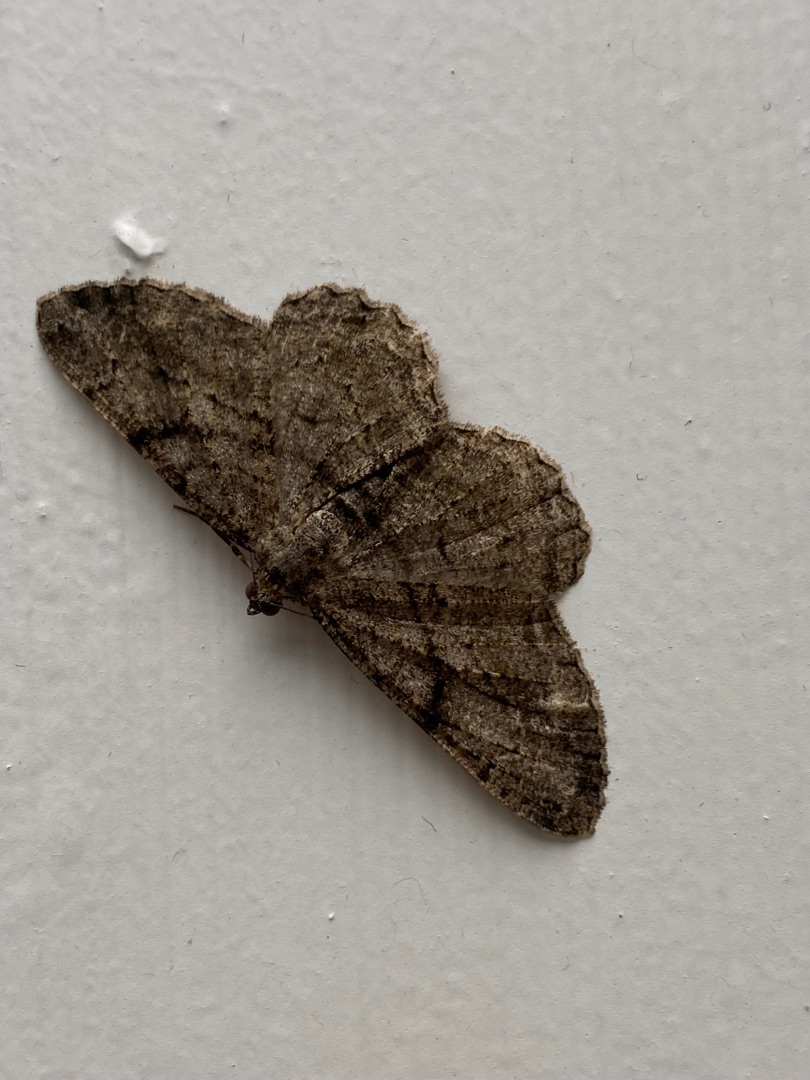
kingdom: Animalia
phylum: Arthropoda
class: Insecta
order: Lepidoptera
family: Geometridae
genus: Peribatodes
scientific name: Peribatodes rhomboidaria
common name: Frugttræ-barkmåler
